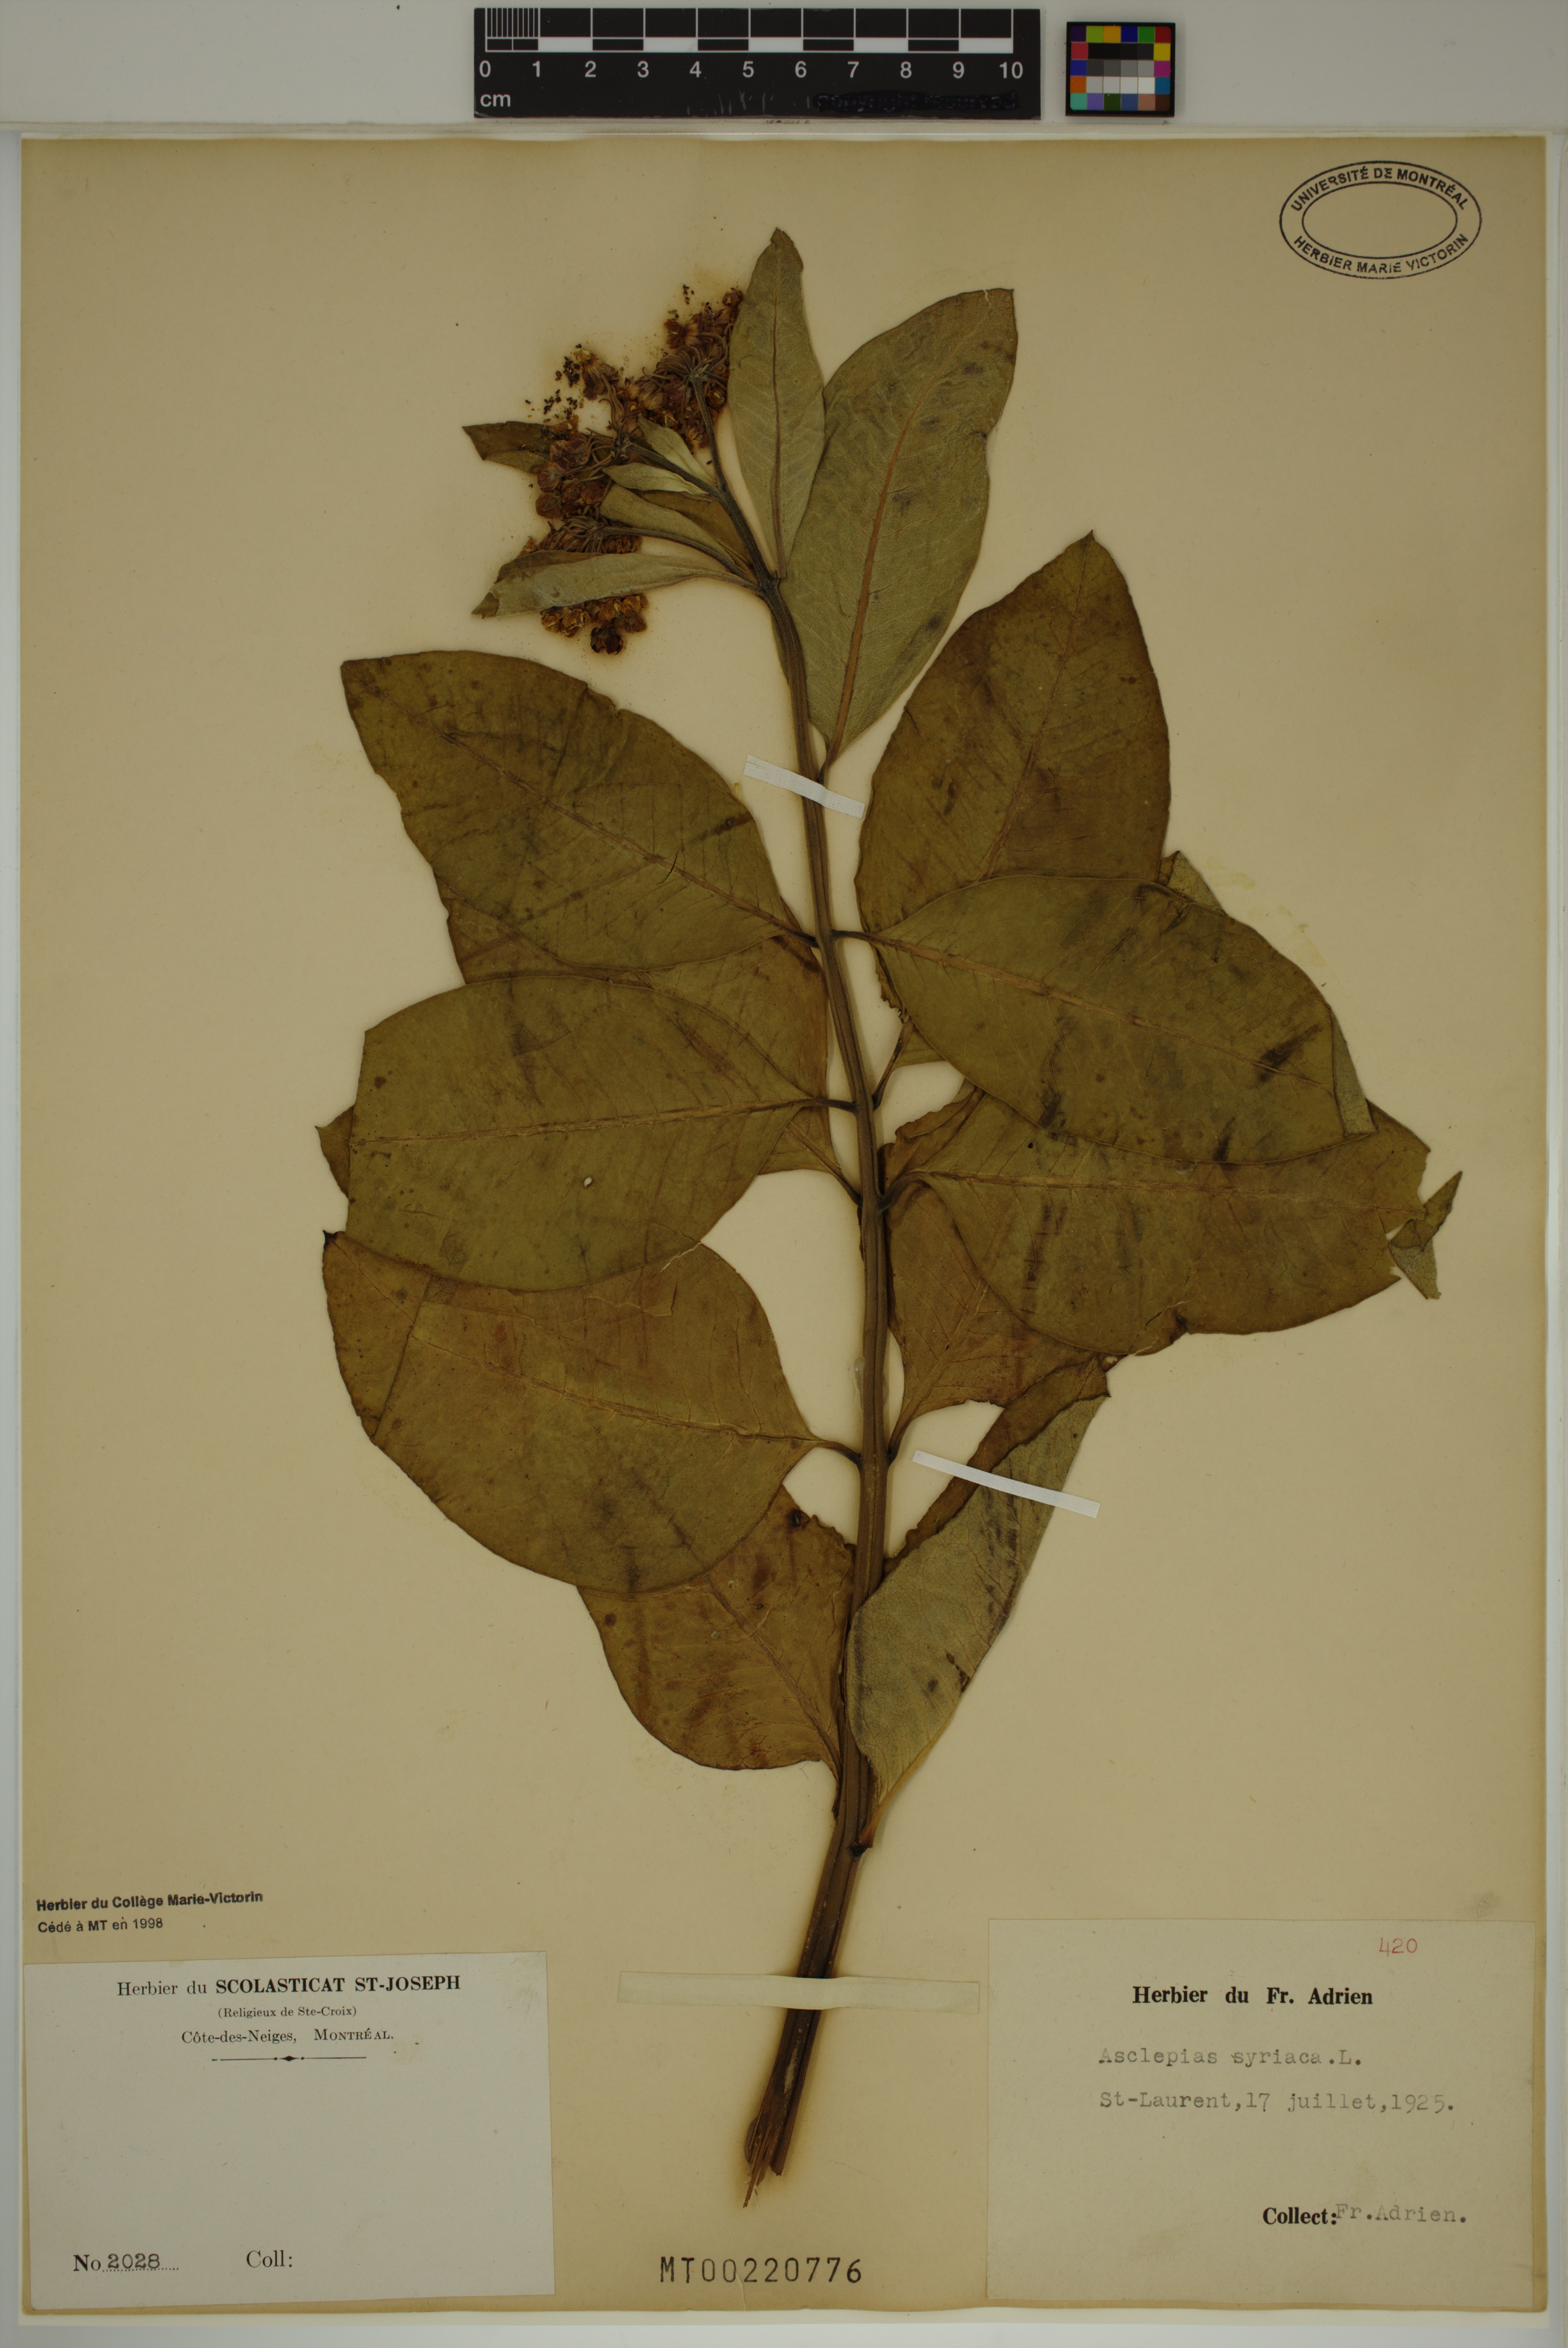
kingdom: Plantae
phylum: Tracheophyta
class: Magnoliopsida
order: Gentianales
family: Apocynaceae
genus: Asclepias
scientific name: Asclepias syriaca
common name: Common milkweed
